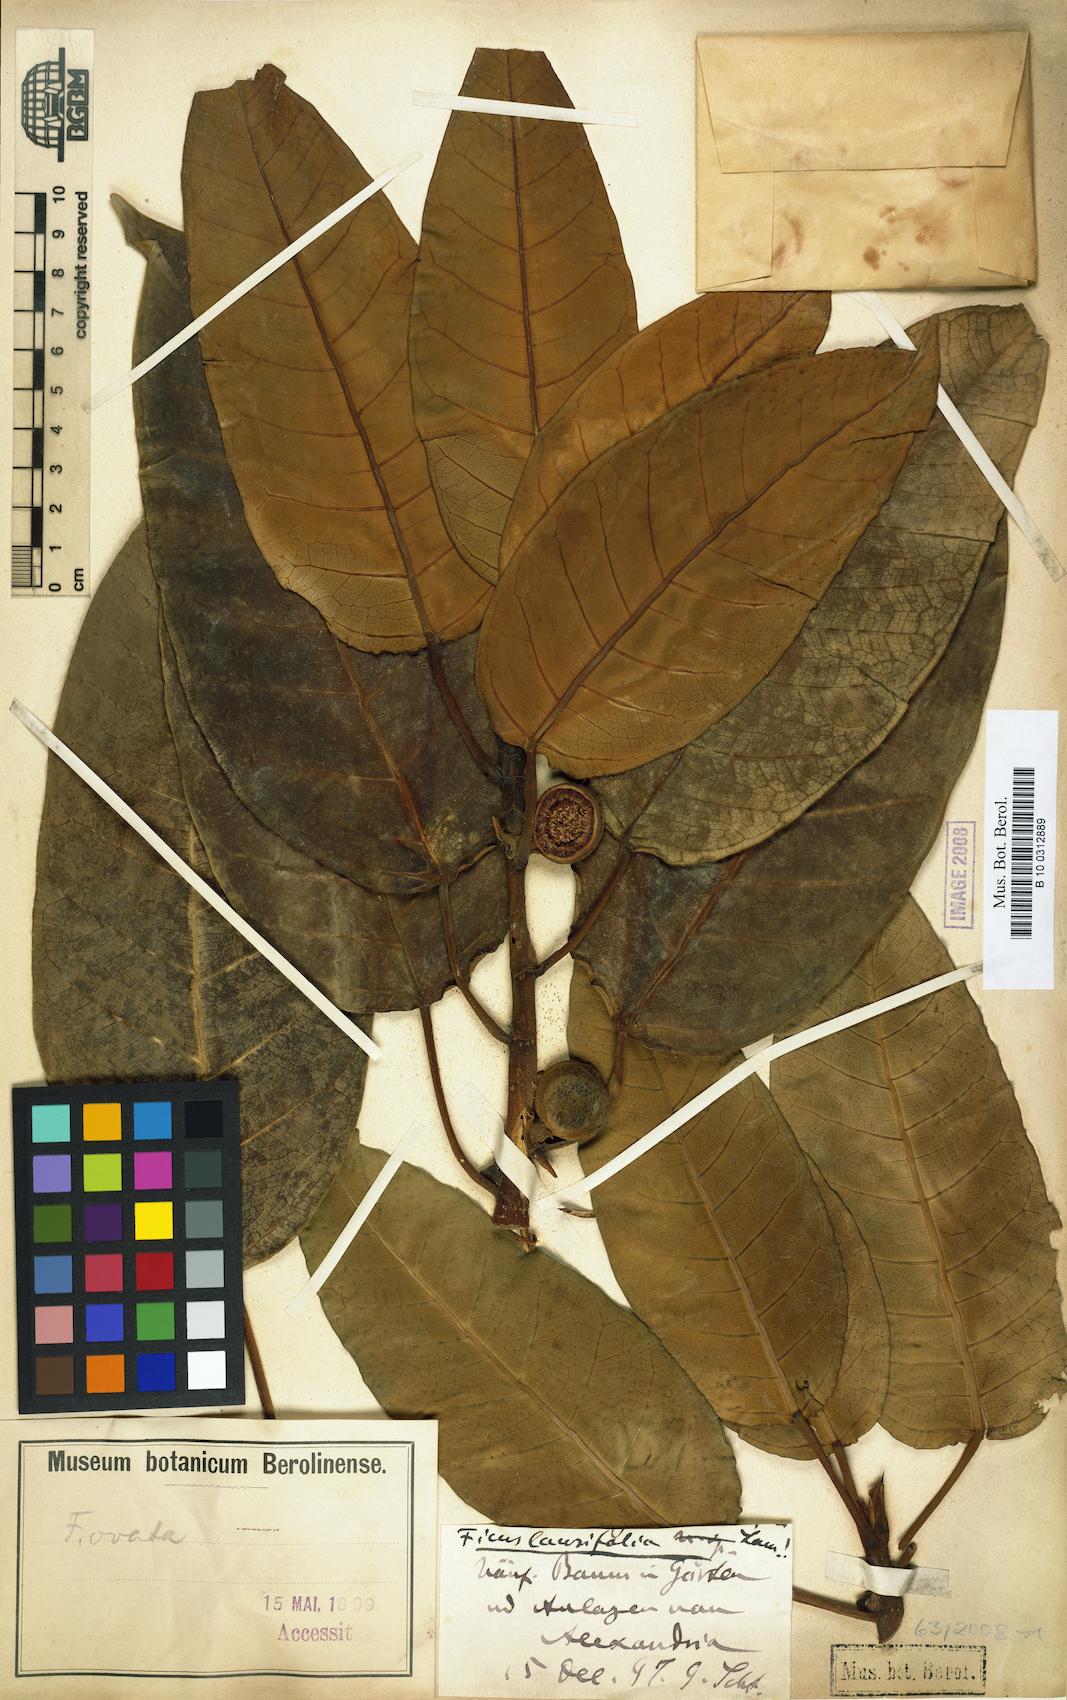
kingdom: Plantae
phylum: Tracheophyta
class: Magnoliopsida
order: Rosales
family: Moraceae
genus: Ficus
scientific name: Ficus laurifolia
